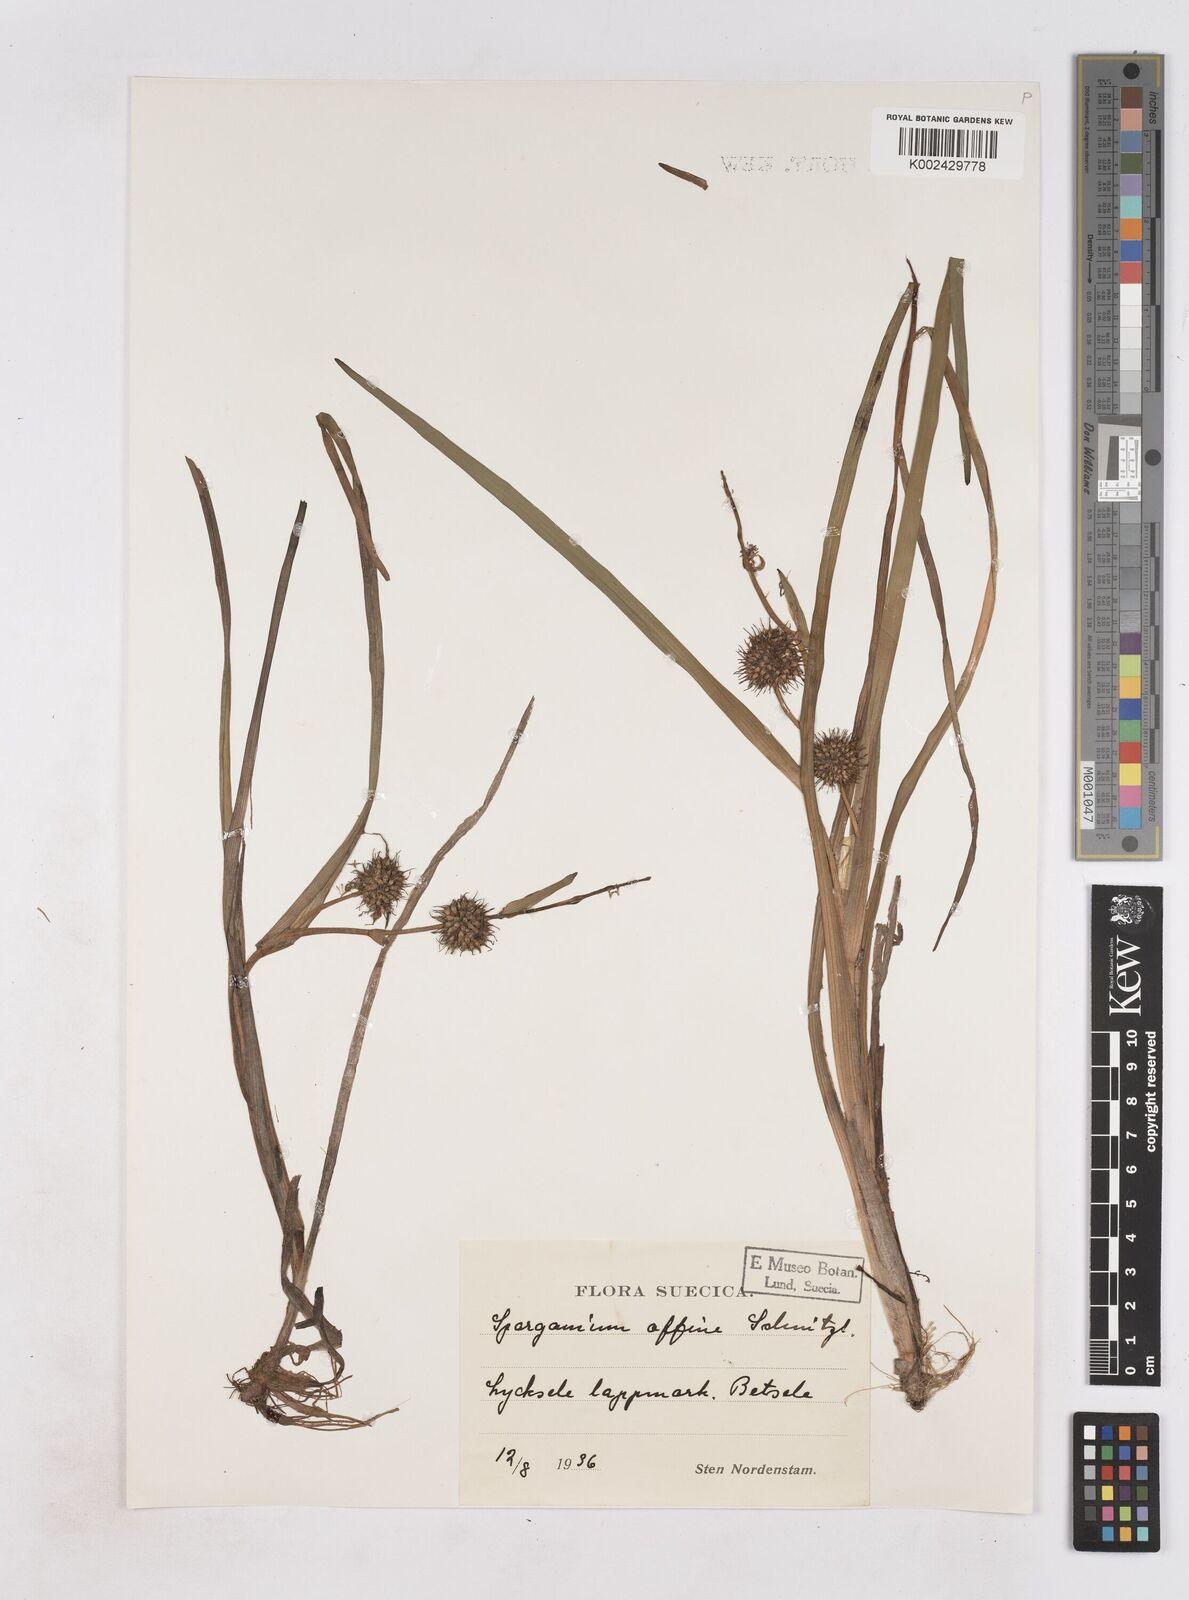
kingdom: Plantae
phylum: Tracheophyta
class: Liliopsida
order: Poales
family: Typhaceae
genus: Sparganium
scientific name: Sparganium angustifolium
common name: Floating bur-reed
